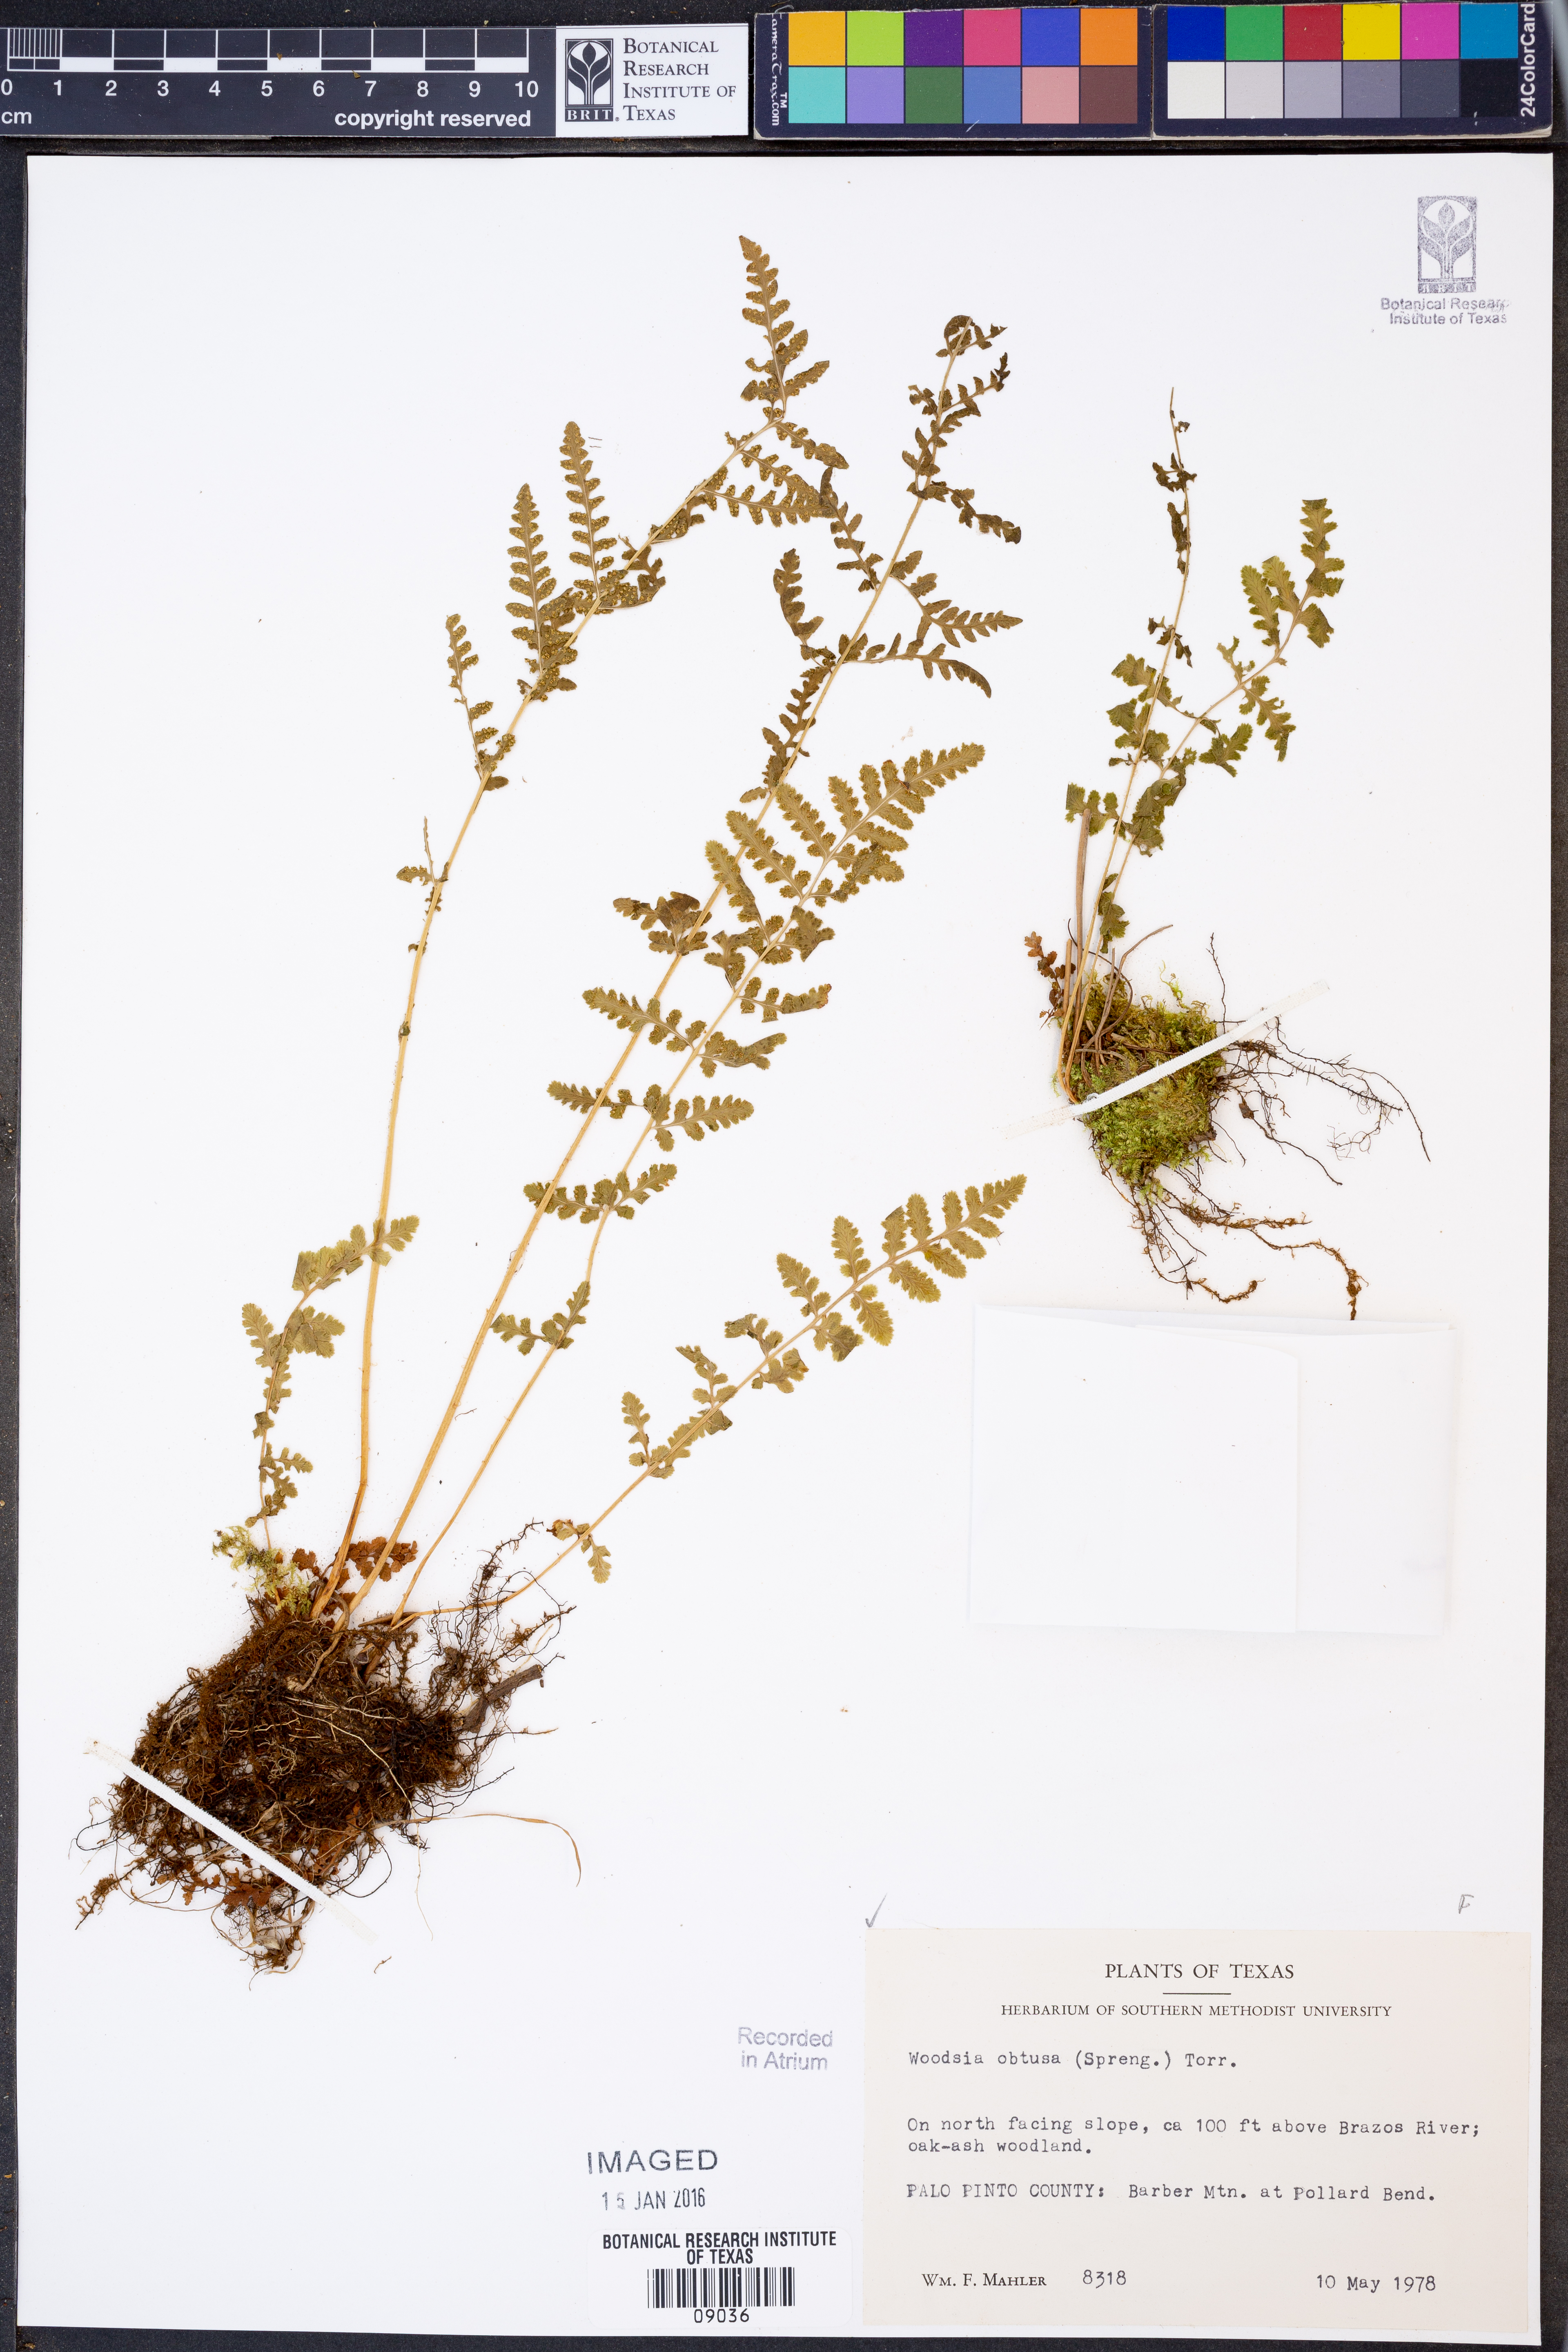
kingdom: Plantae
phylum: Tracheophyta
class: Polypodiopsida
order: Polypodiales
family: Woodsiaceae
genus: Physematium
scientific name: Physematium obtusum
